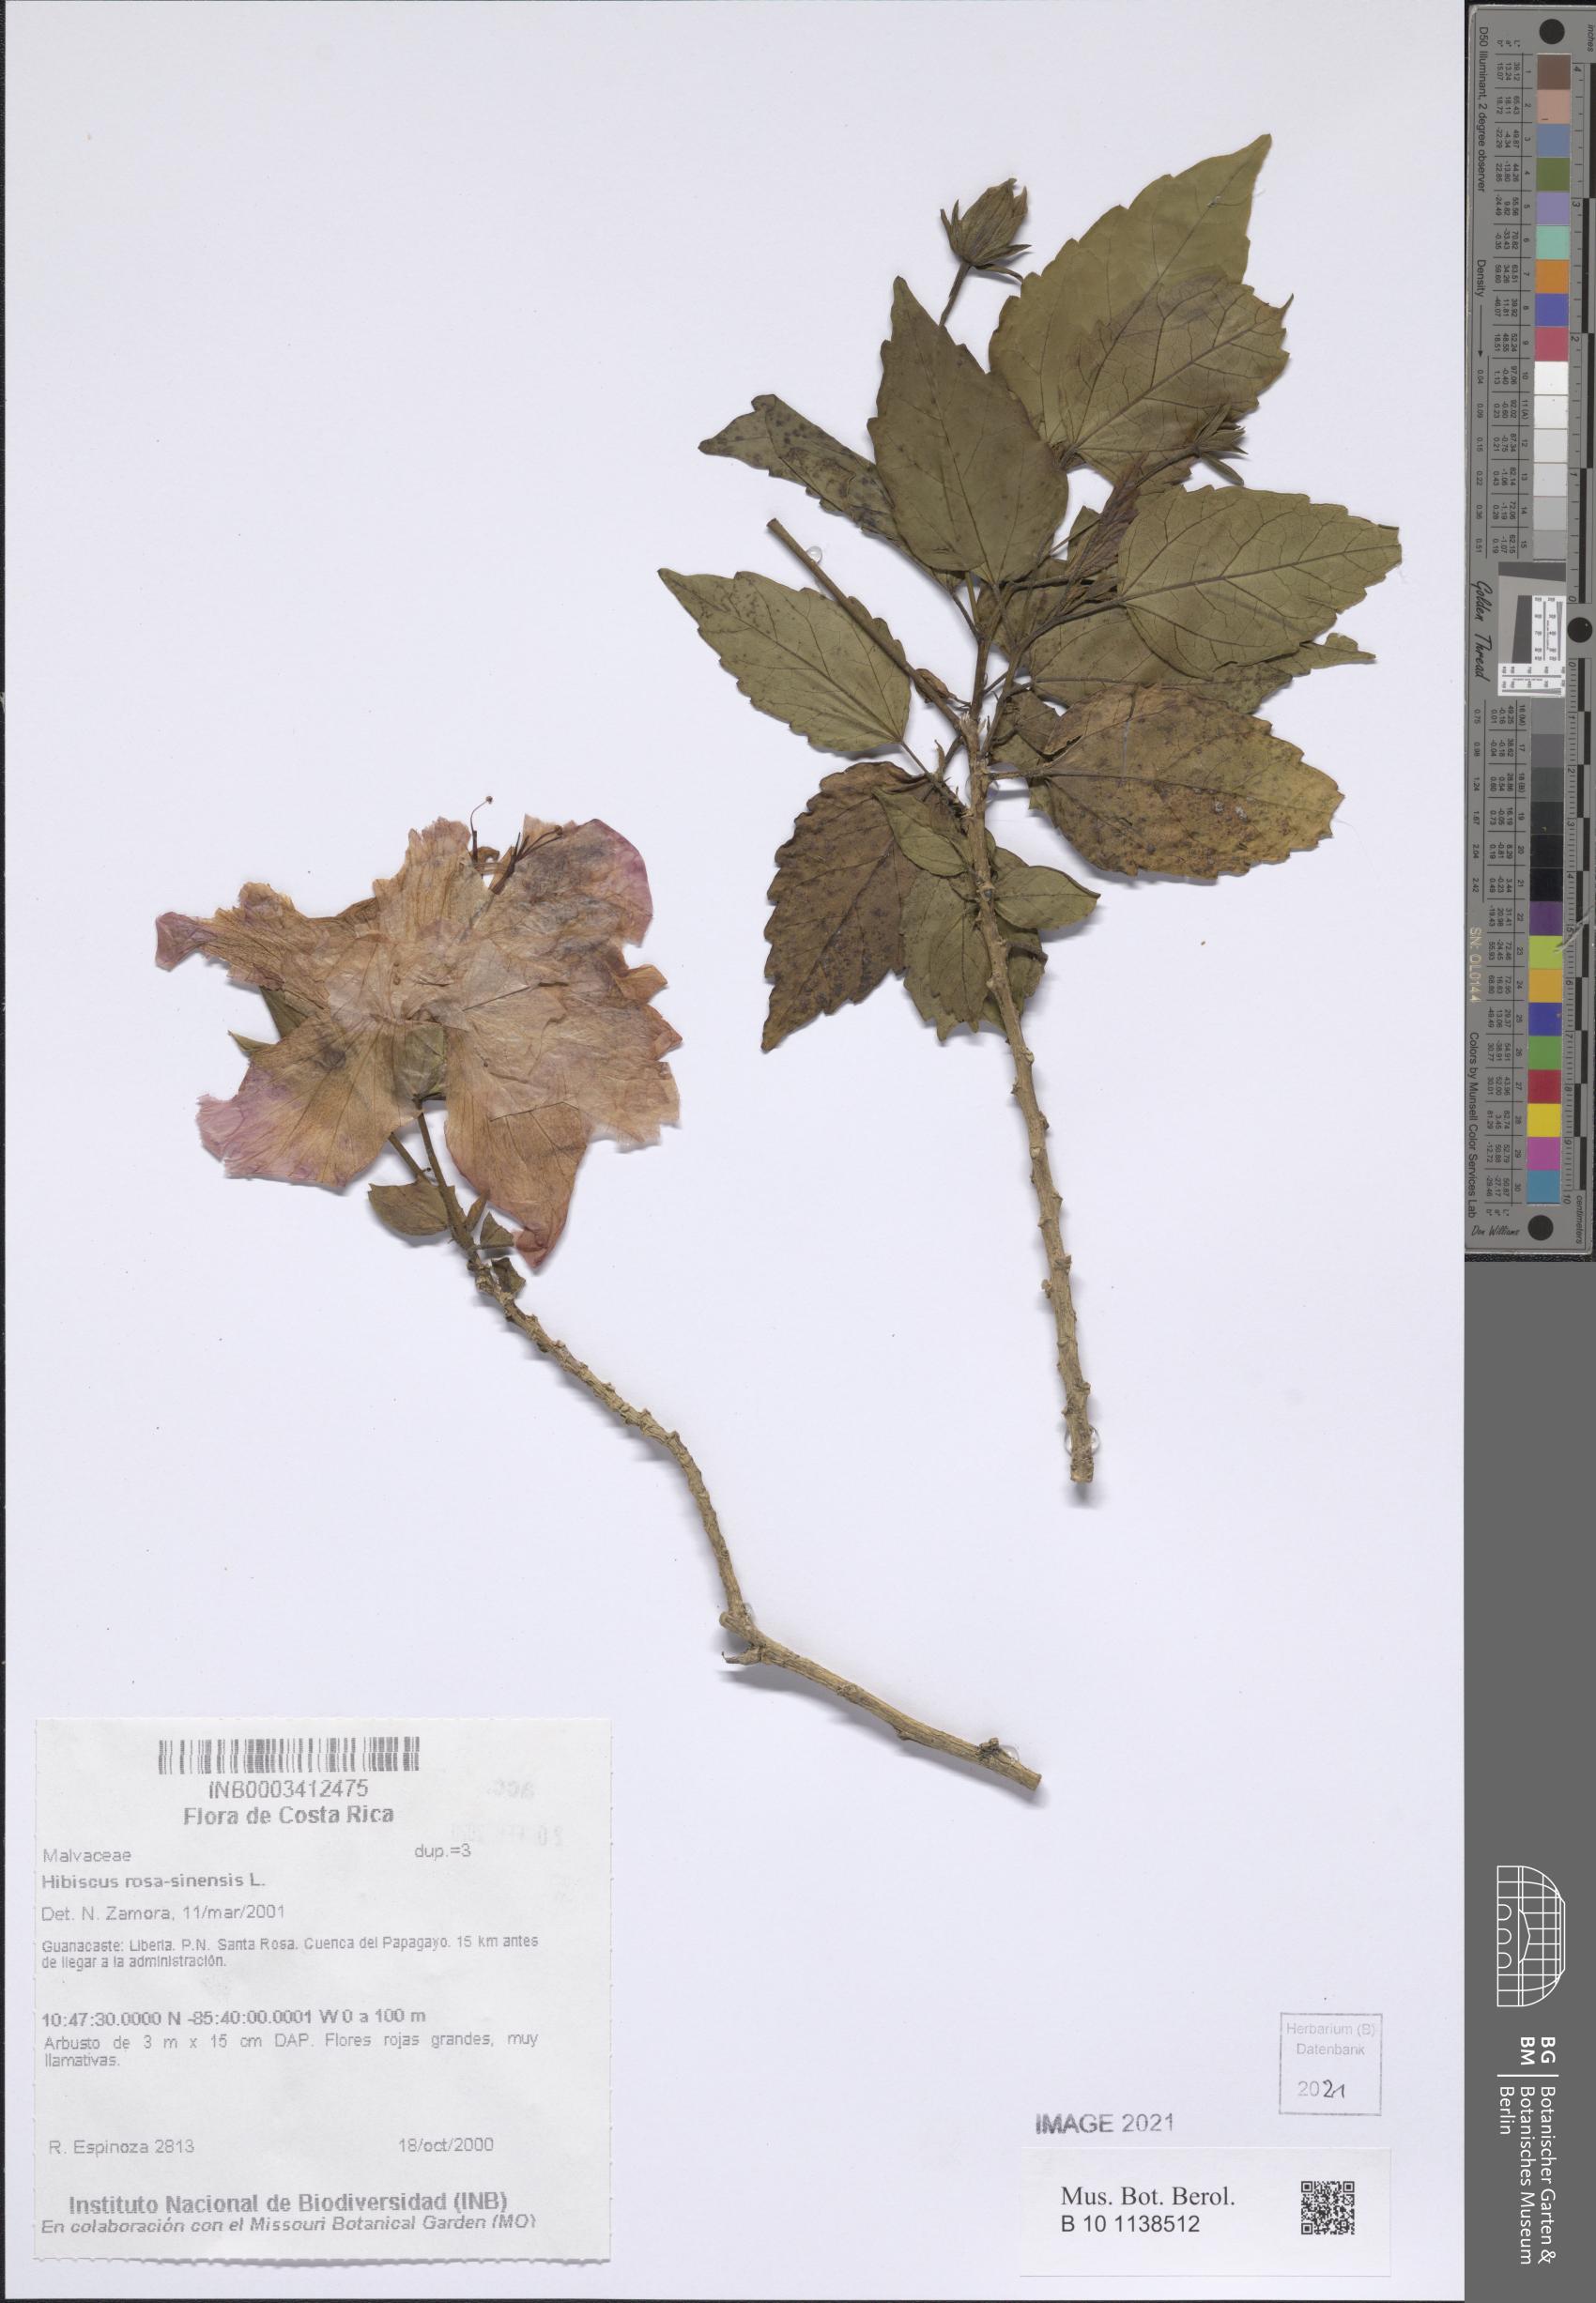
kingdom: Plantae
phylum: Tracheophyta
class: Magnoliopsida
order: Malvales
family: Malvaceae
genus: Hibiscus
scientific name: Hibiscus rosa-sinensis
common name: Hibiscus
